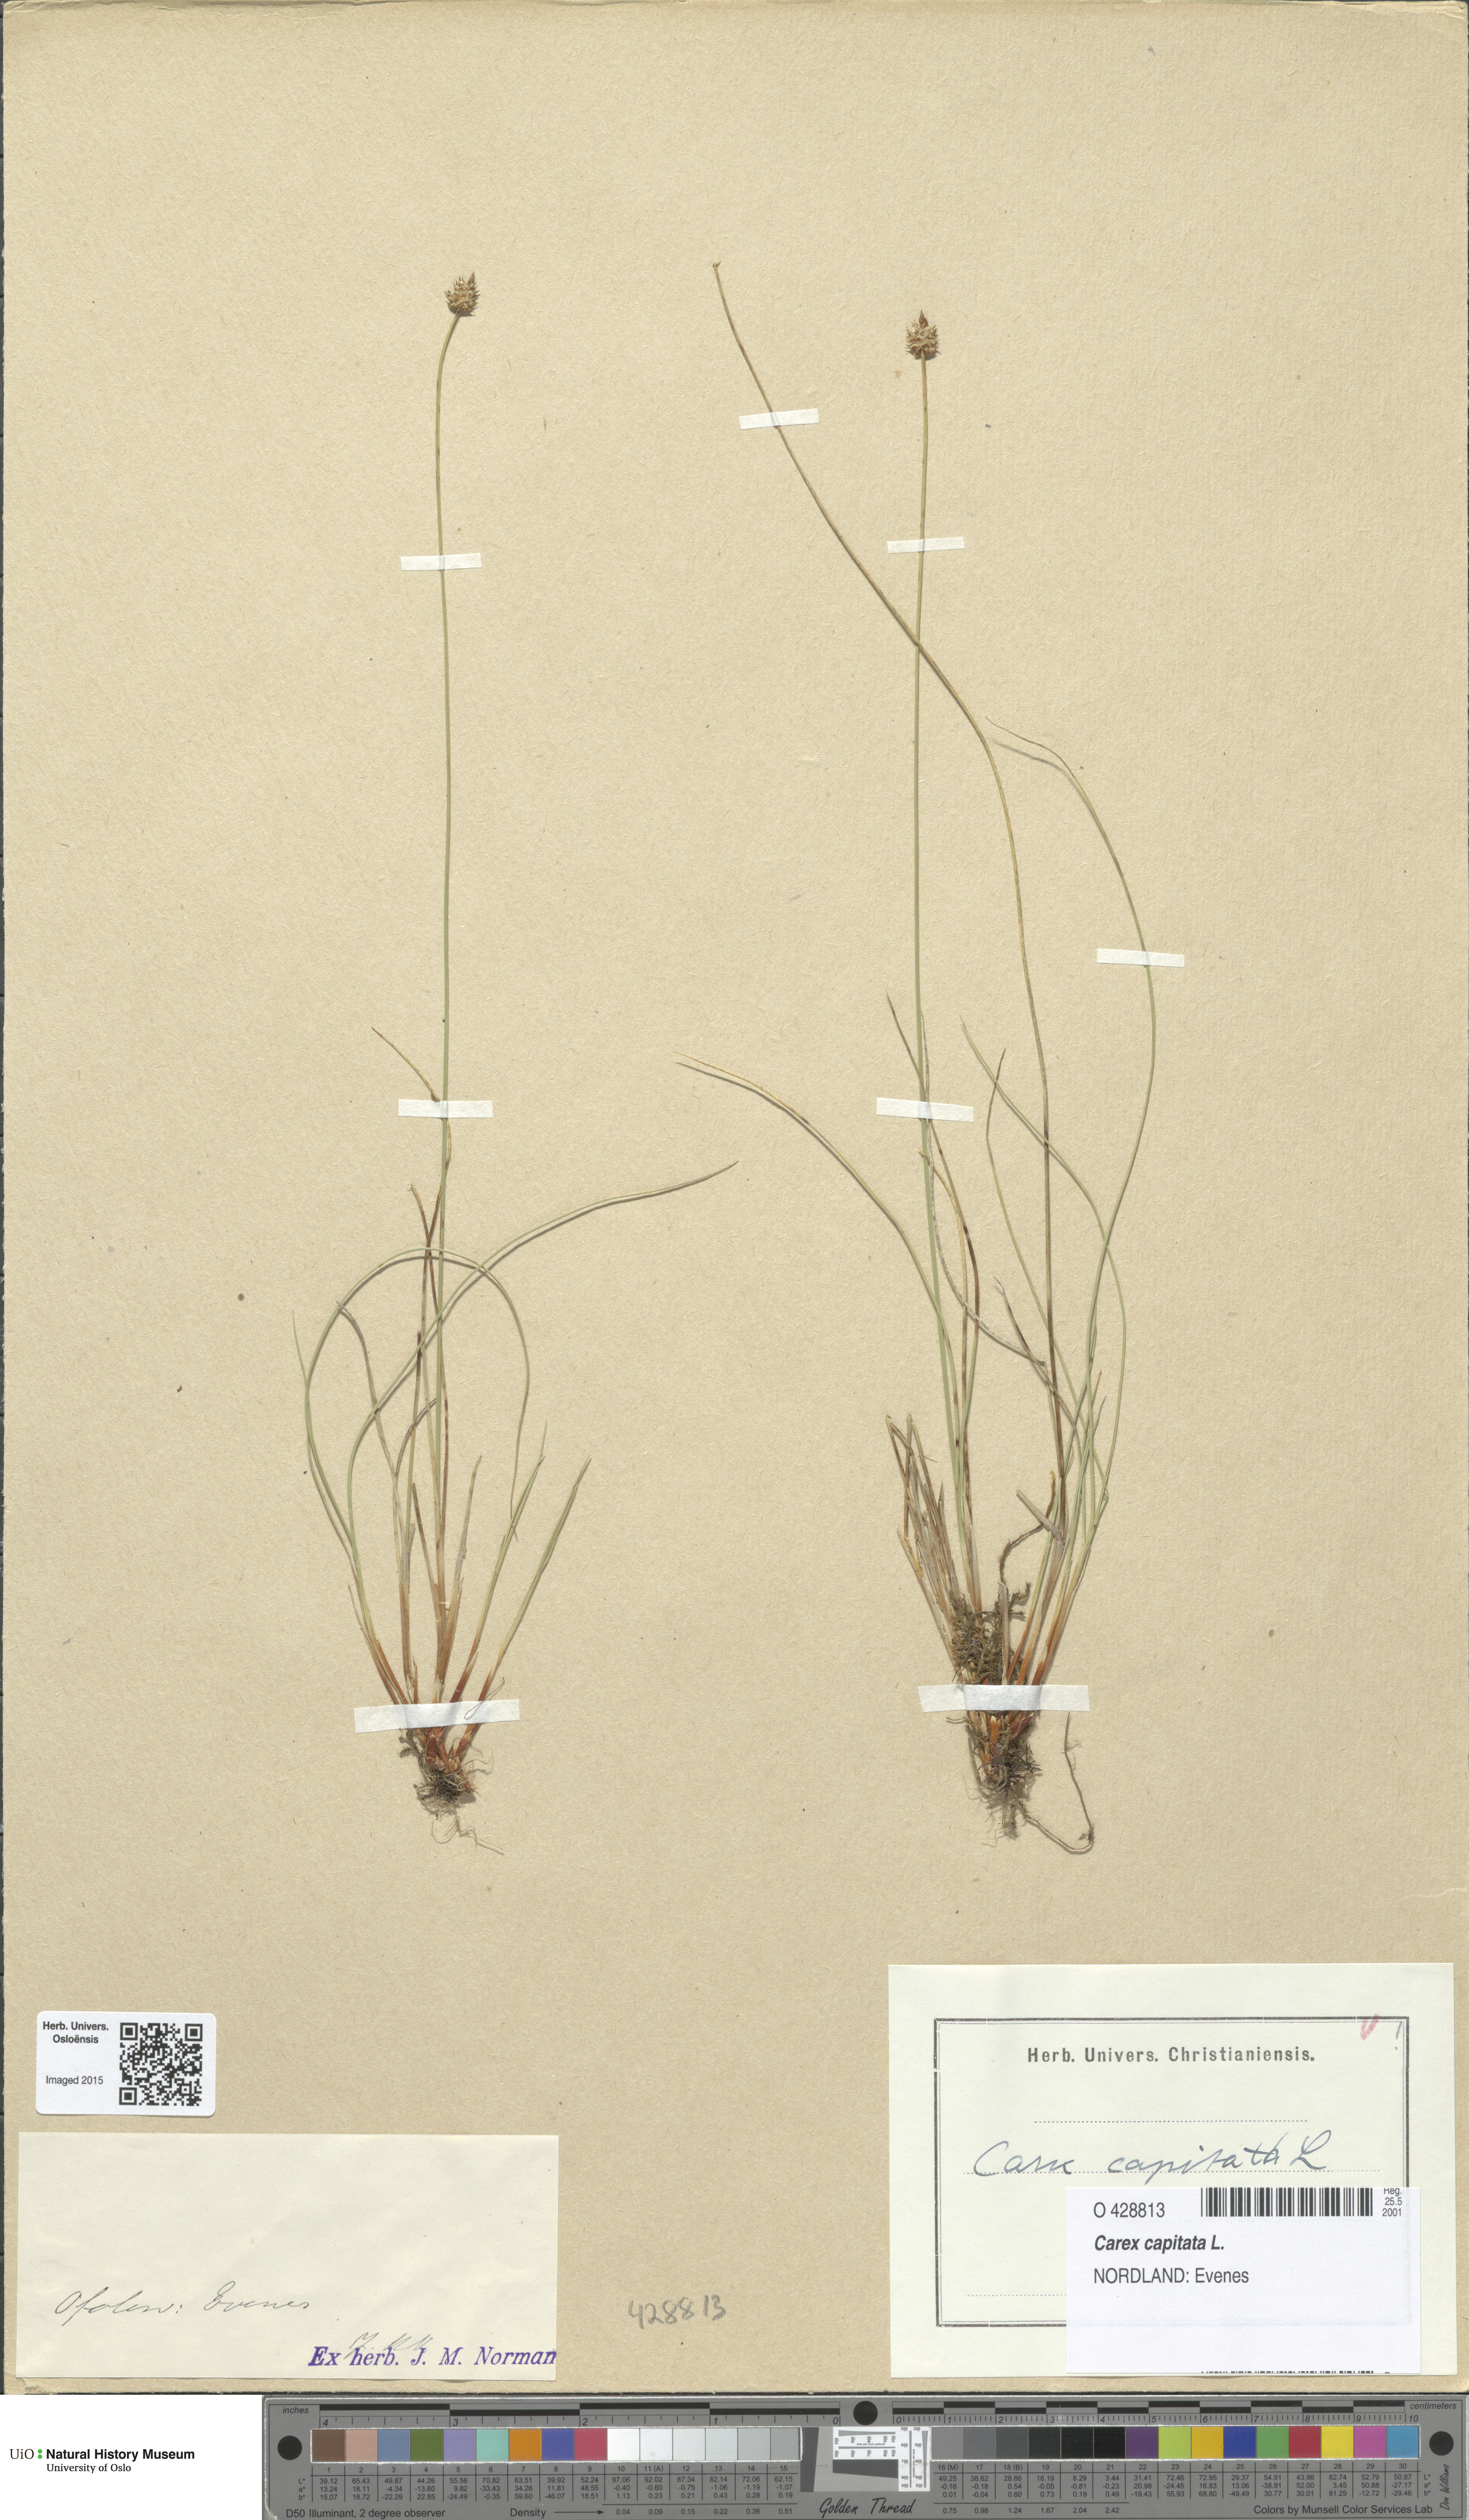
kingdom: Plantae
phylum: Tracheophyta
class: Liliopsida
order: Poales
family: Cyperaceae
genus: Carex
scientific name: Carex capitata
